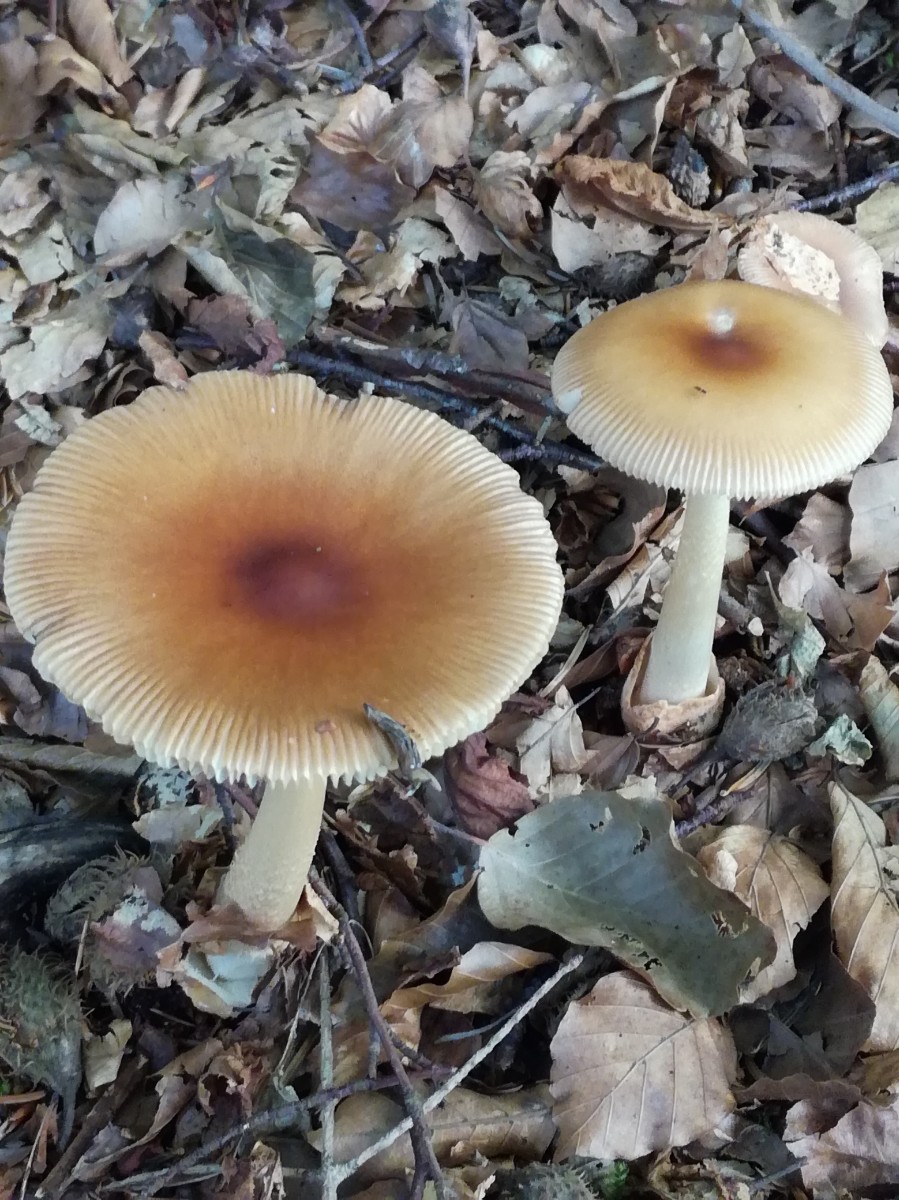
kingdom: Fungi
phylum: Basidiomycota
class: Agaricomycetes
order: Agaricales
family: Amanitaceae
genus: Amanita
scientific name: Amanita fulva
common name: brun kam-fluesvamp
